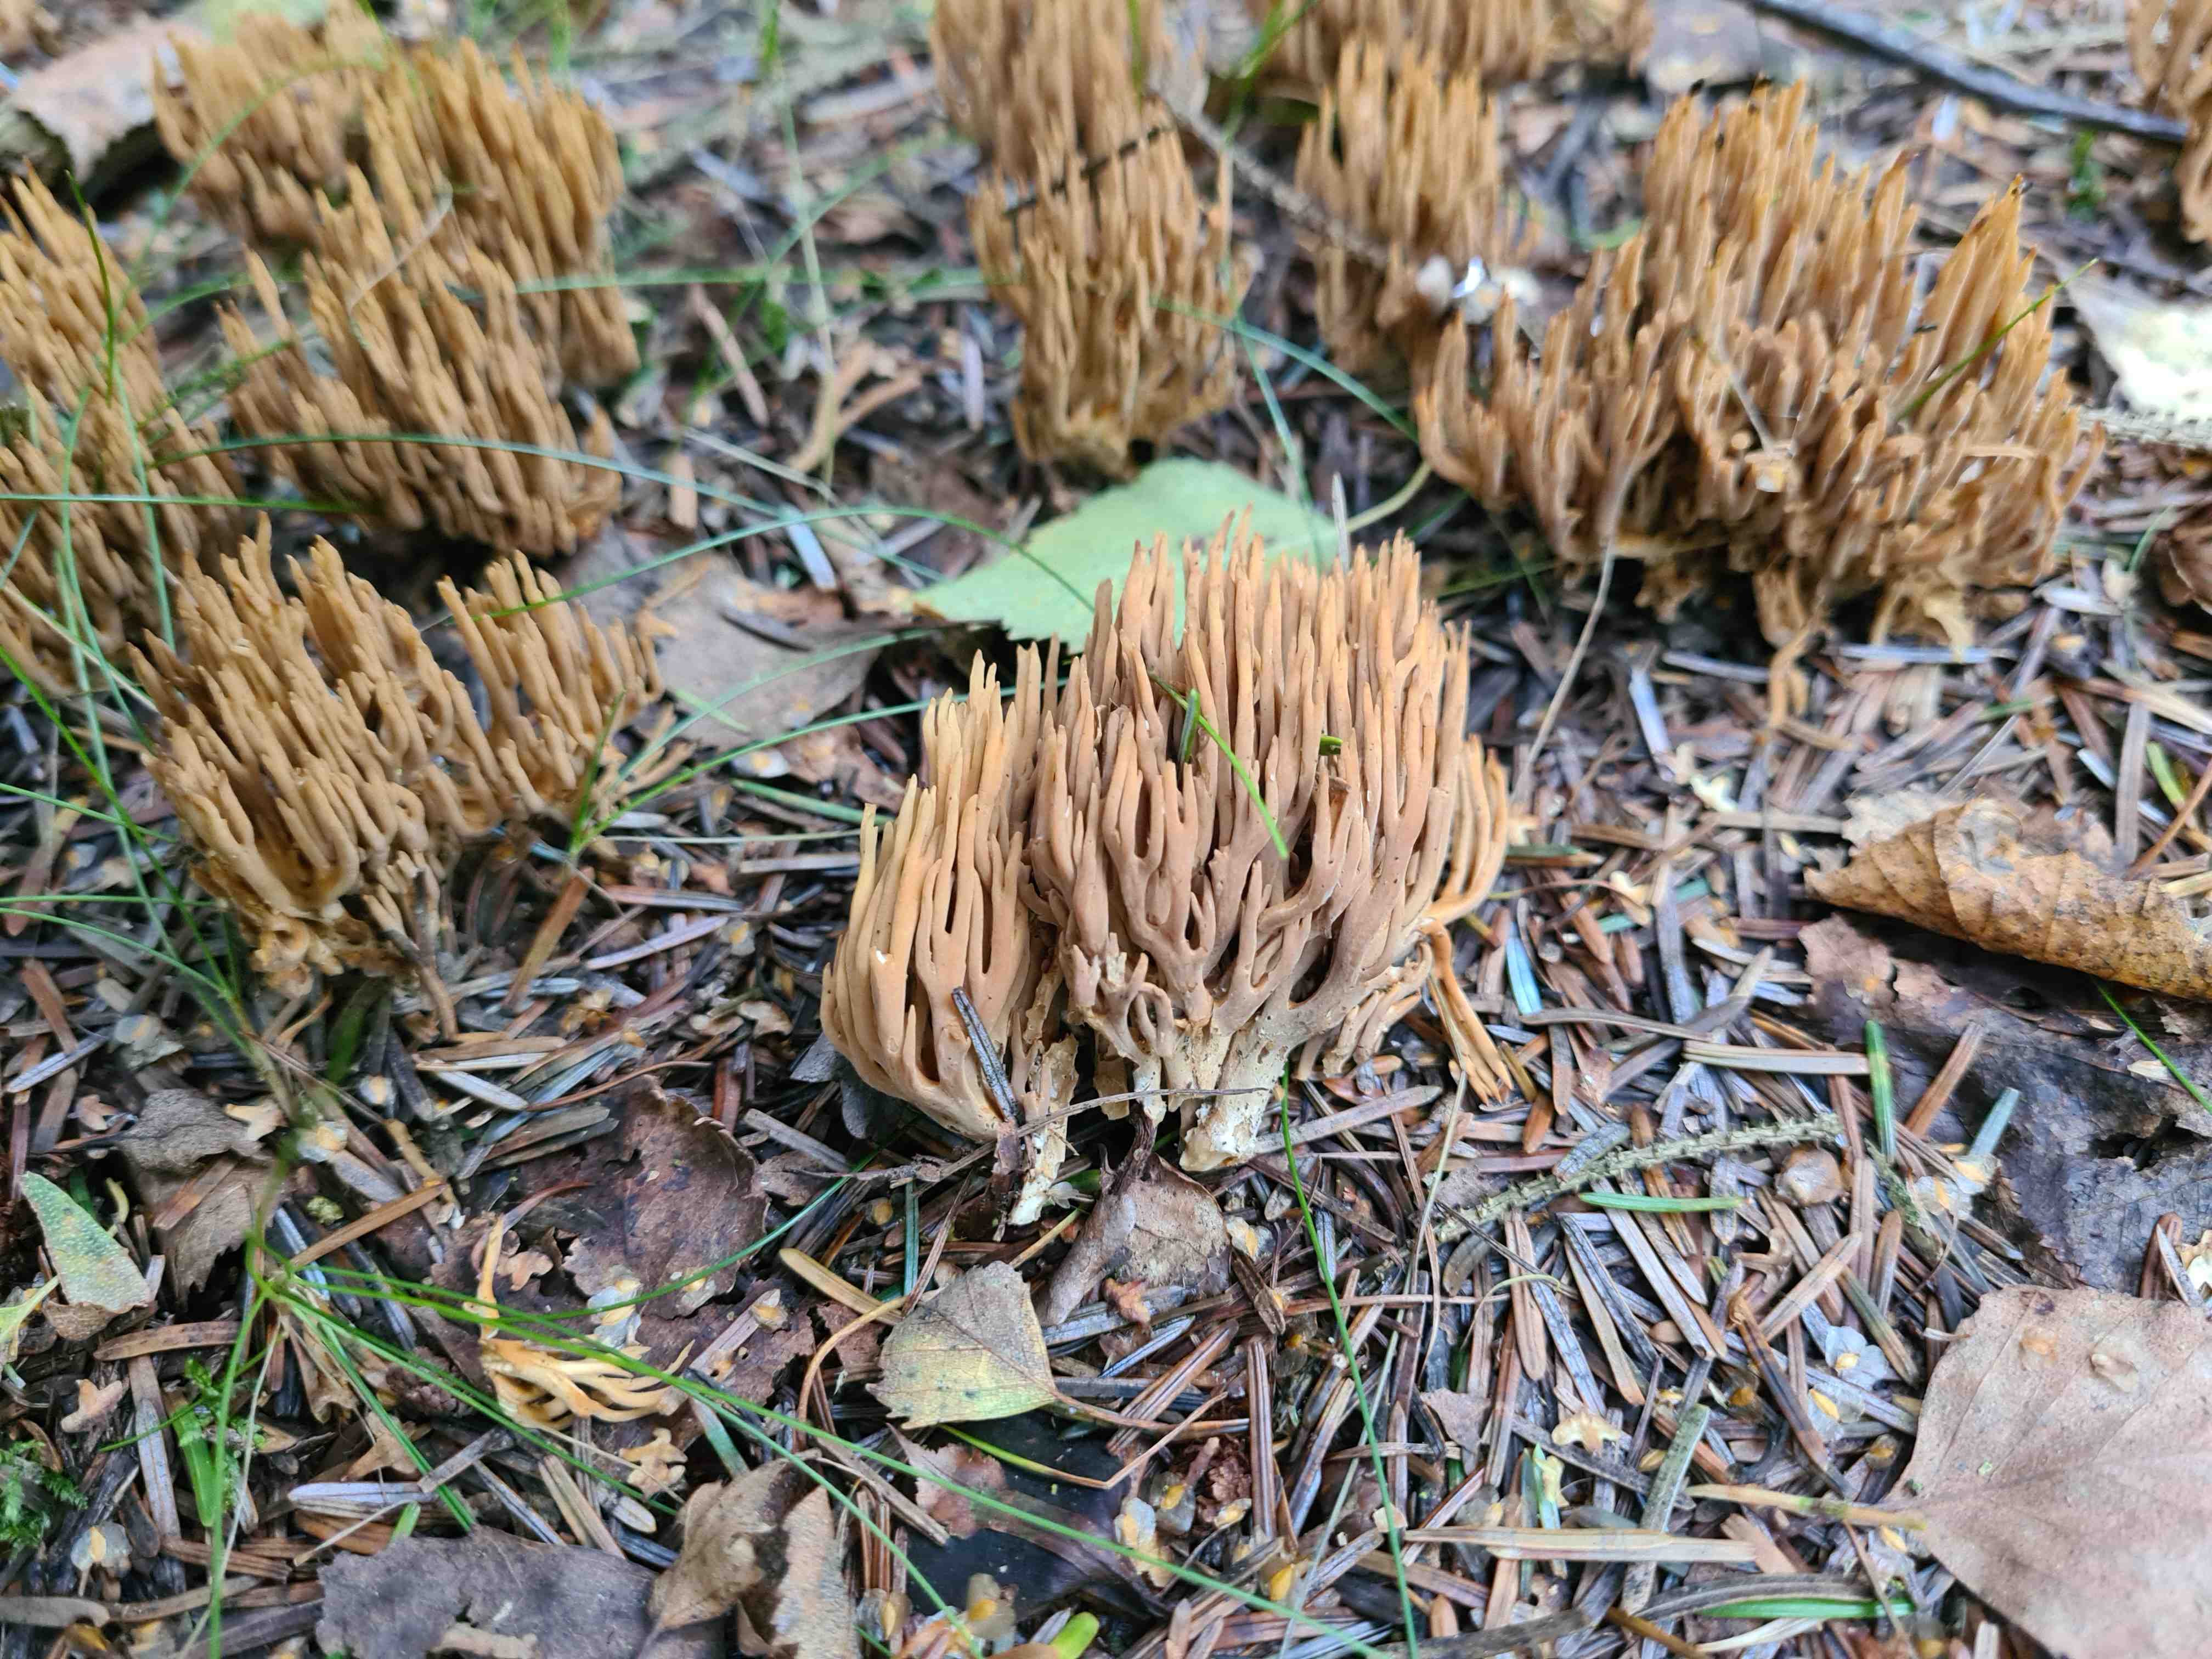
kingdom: Fungi
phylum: Basidiomycota
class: Agaricomycetes
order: Gomphales
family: Gomphaceae
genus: Phaeoclavulina
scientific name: Phaeoclavulina eumorpha
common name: gran-koralsvamp
